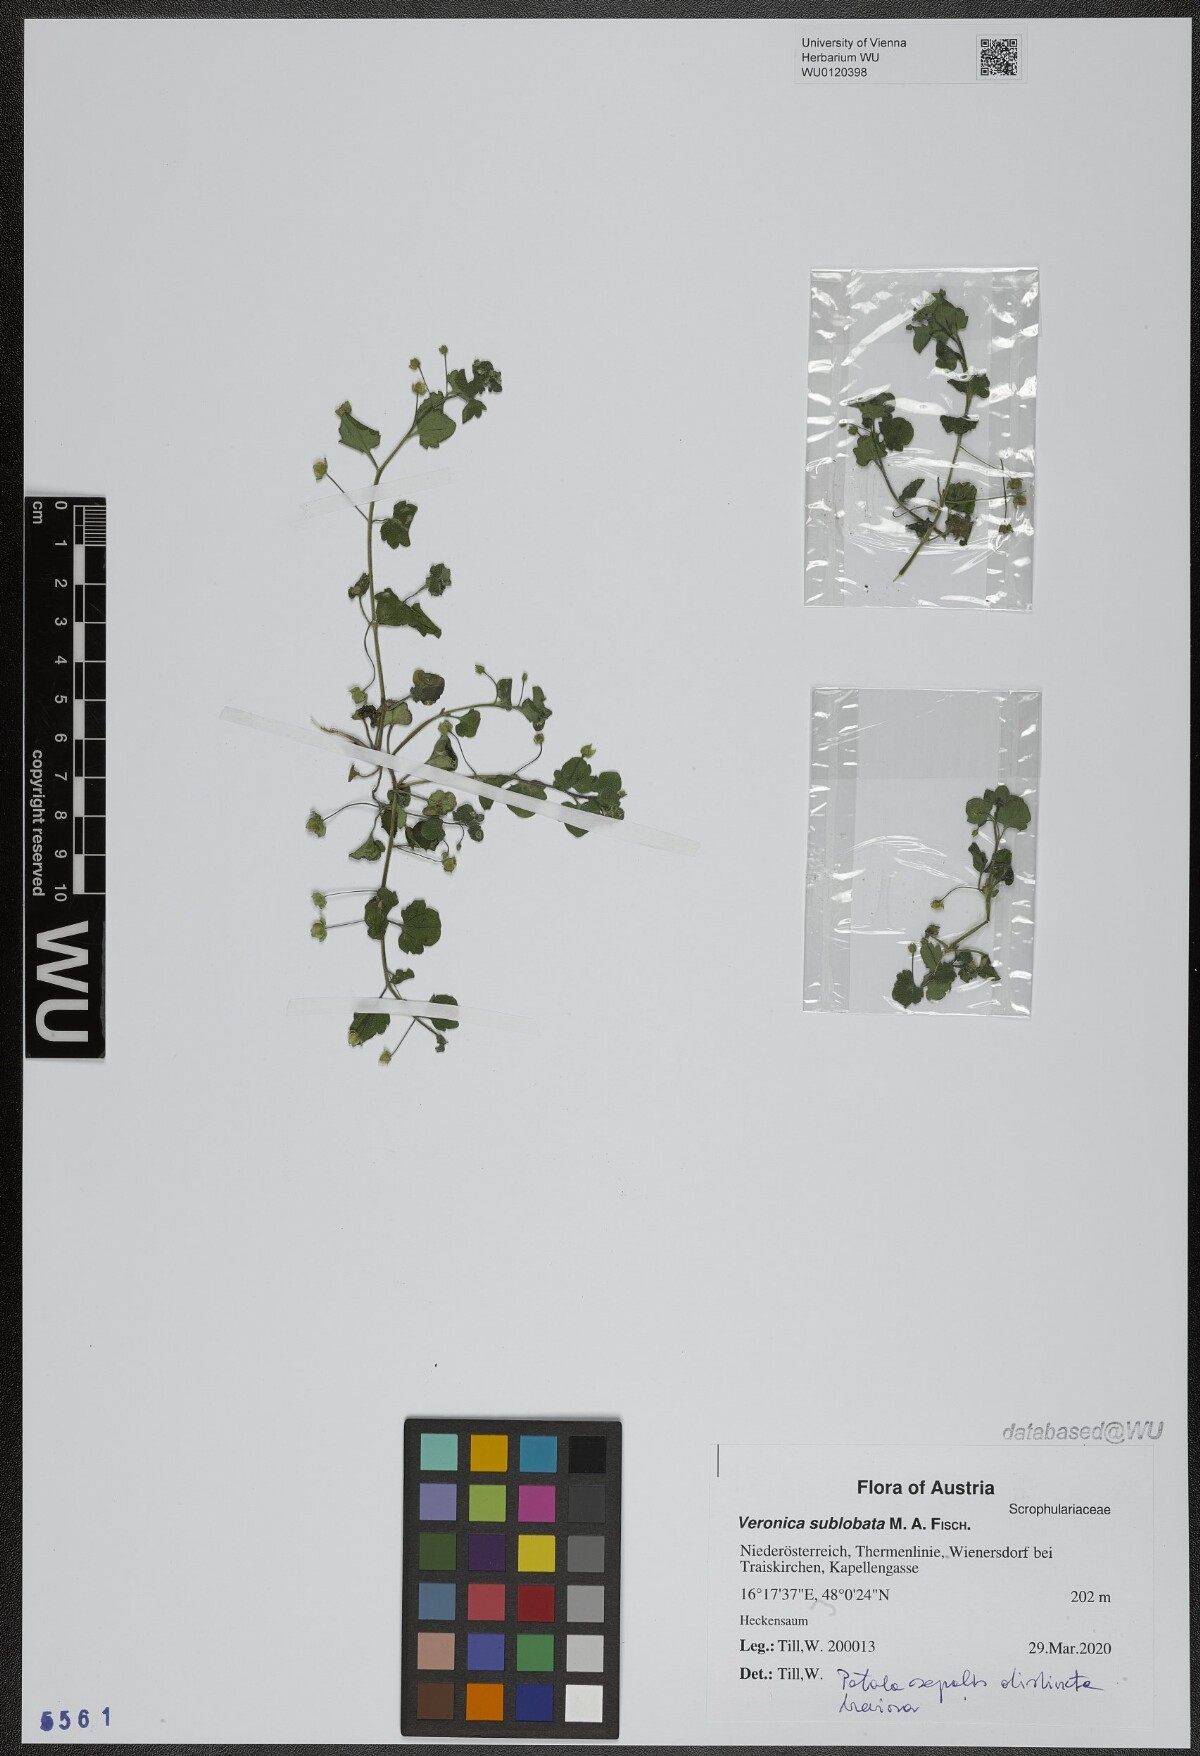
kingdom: Plantae
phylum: Tracheophyta
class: Magnoliopsida
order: Lamiales
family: Plantaginaceae
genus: Veronica
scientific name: Veronica sublobata
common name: False ivy-leaved speedwell
